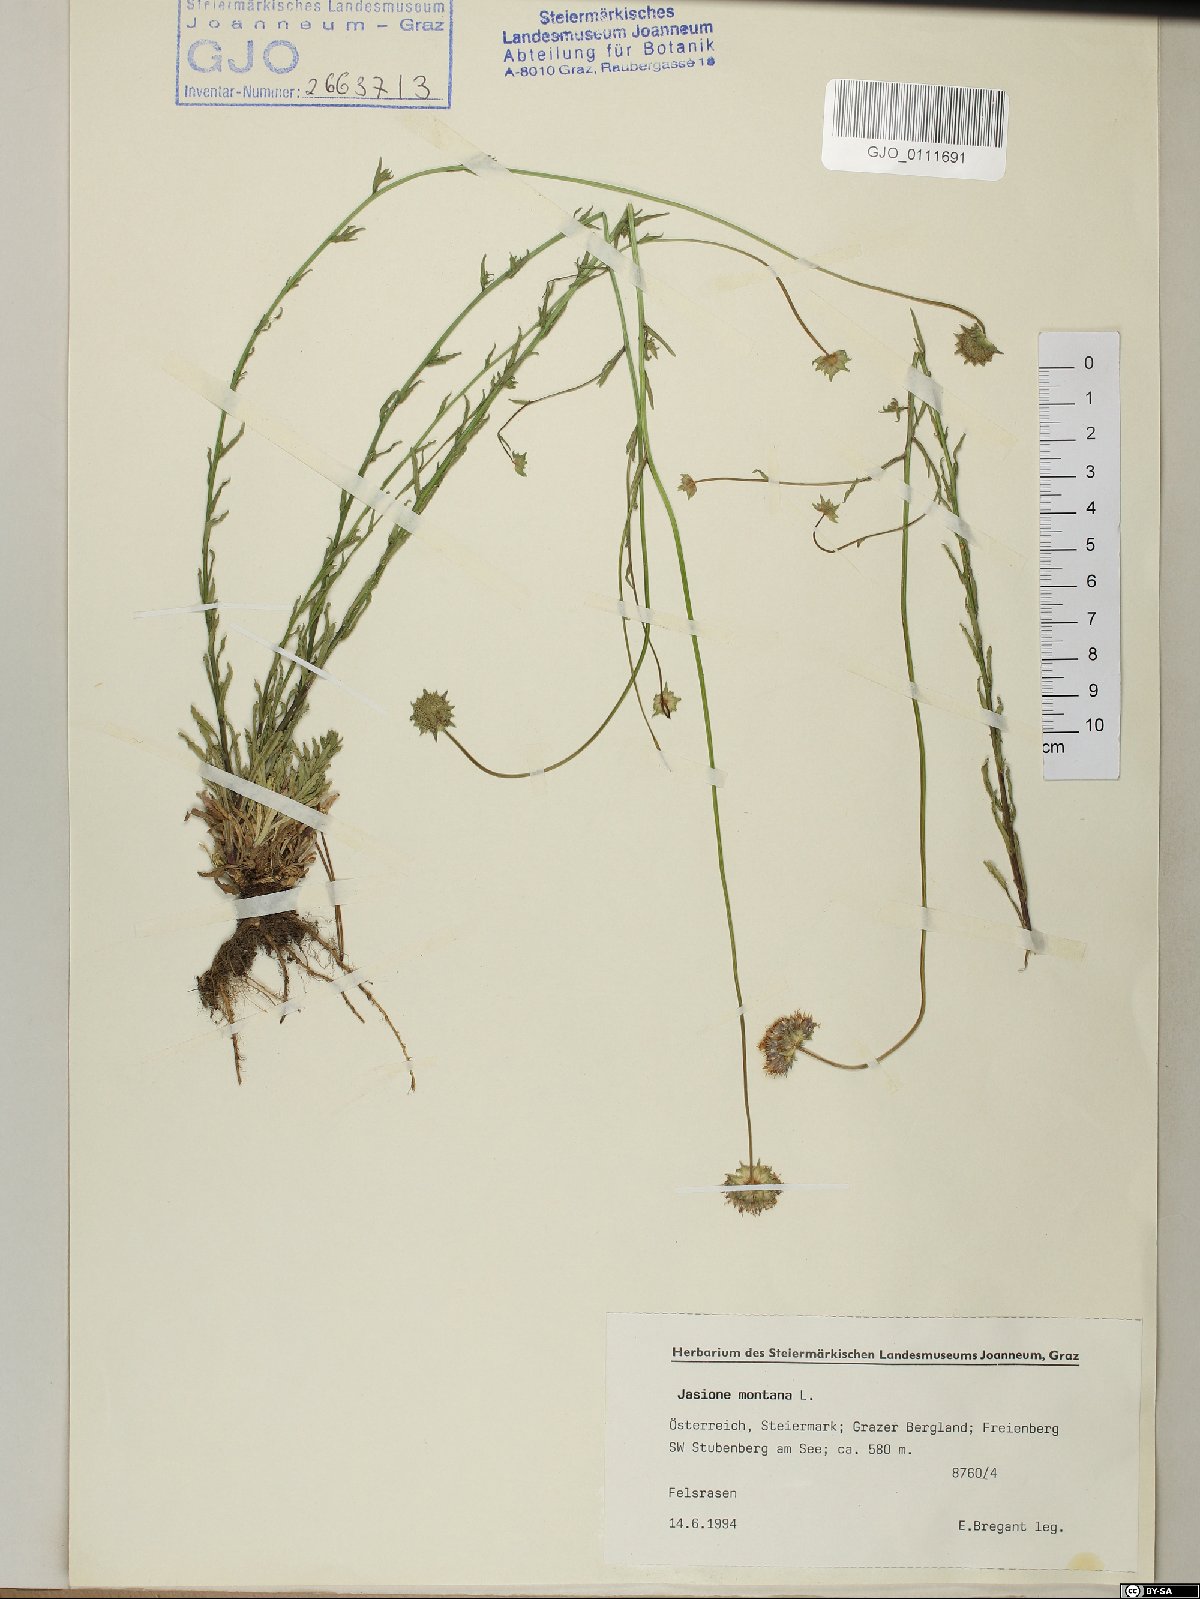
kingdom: Plantae
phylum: Tracheophyta
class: Magnoliopsida
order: Asterales
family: Campanulaceae
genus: Jasione
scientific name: Jasione montana
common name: Sheep's-bit
